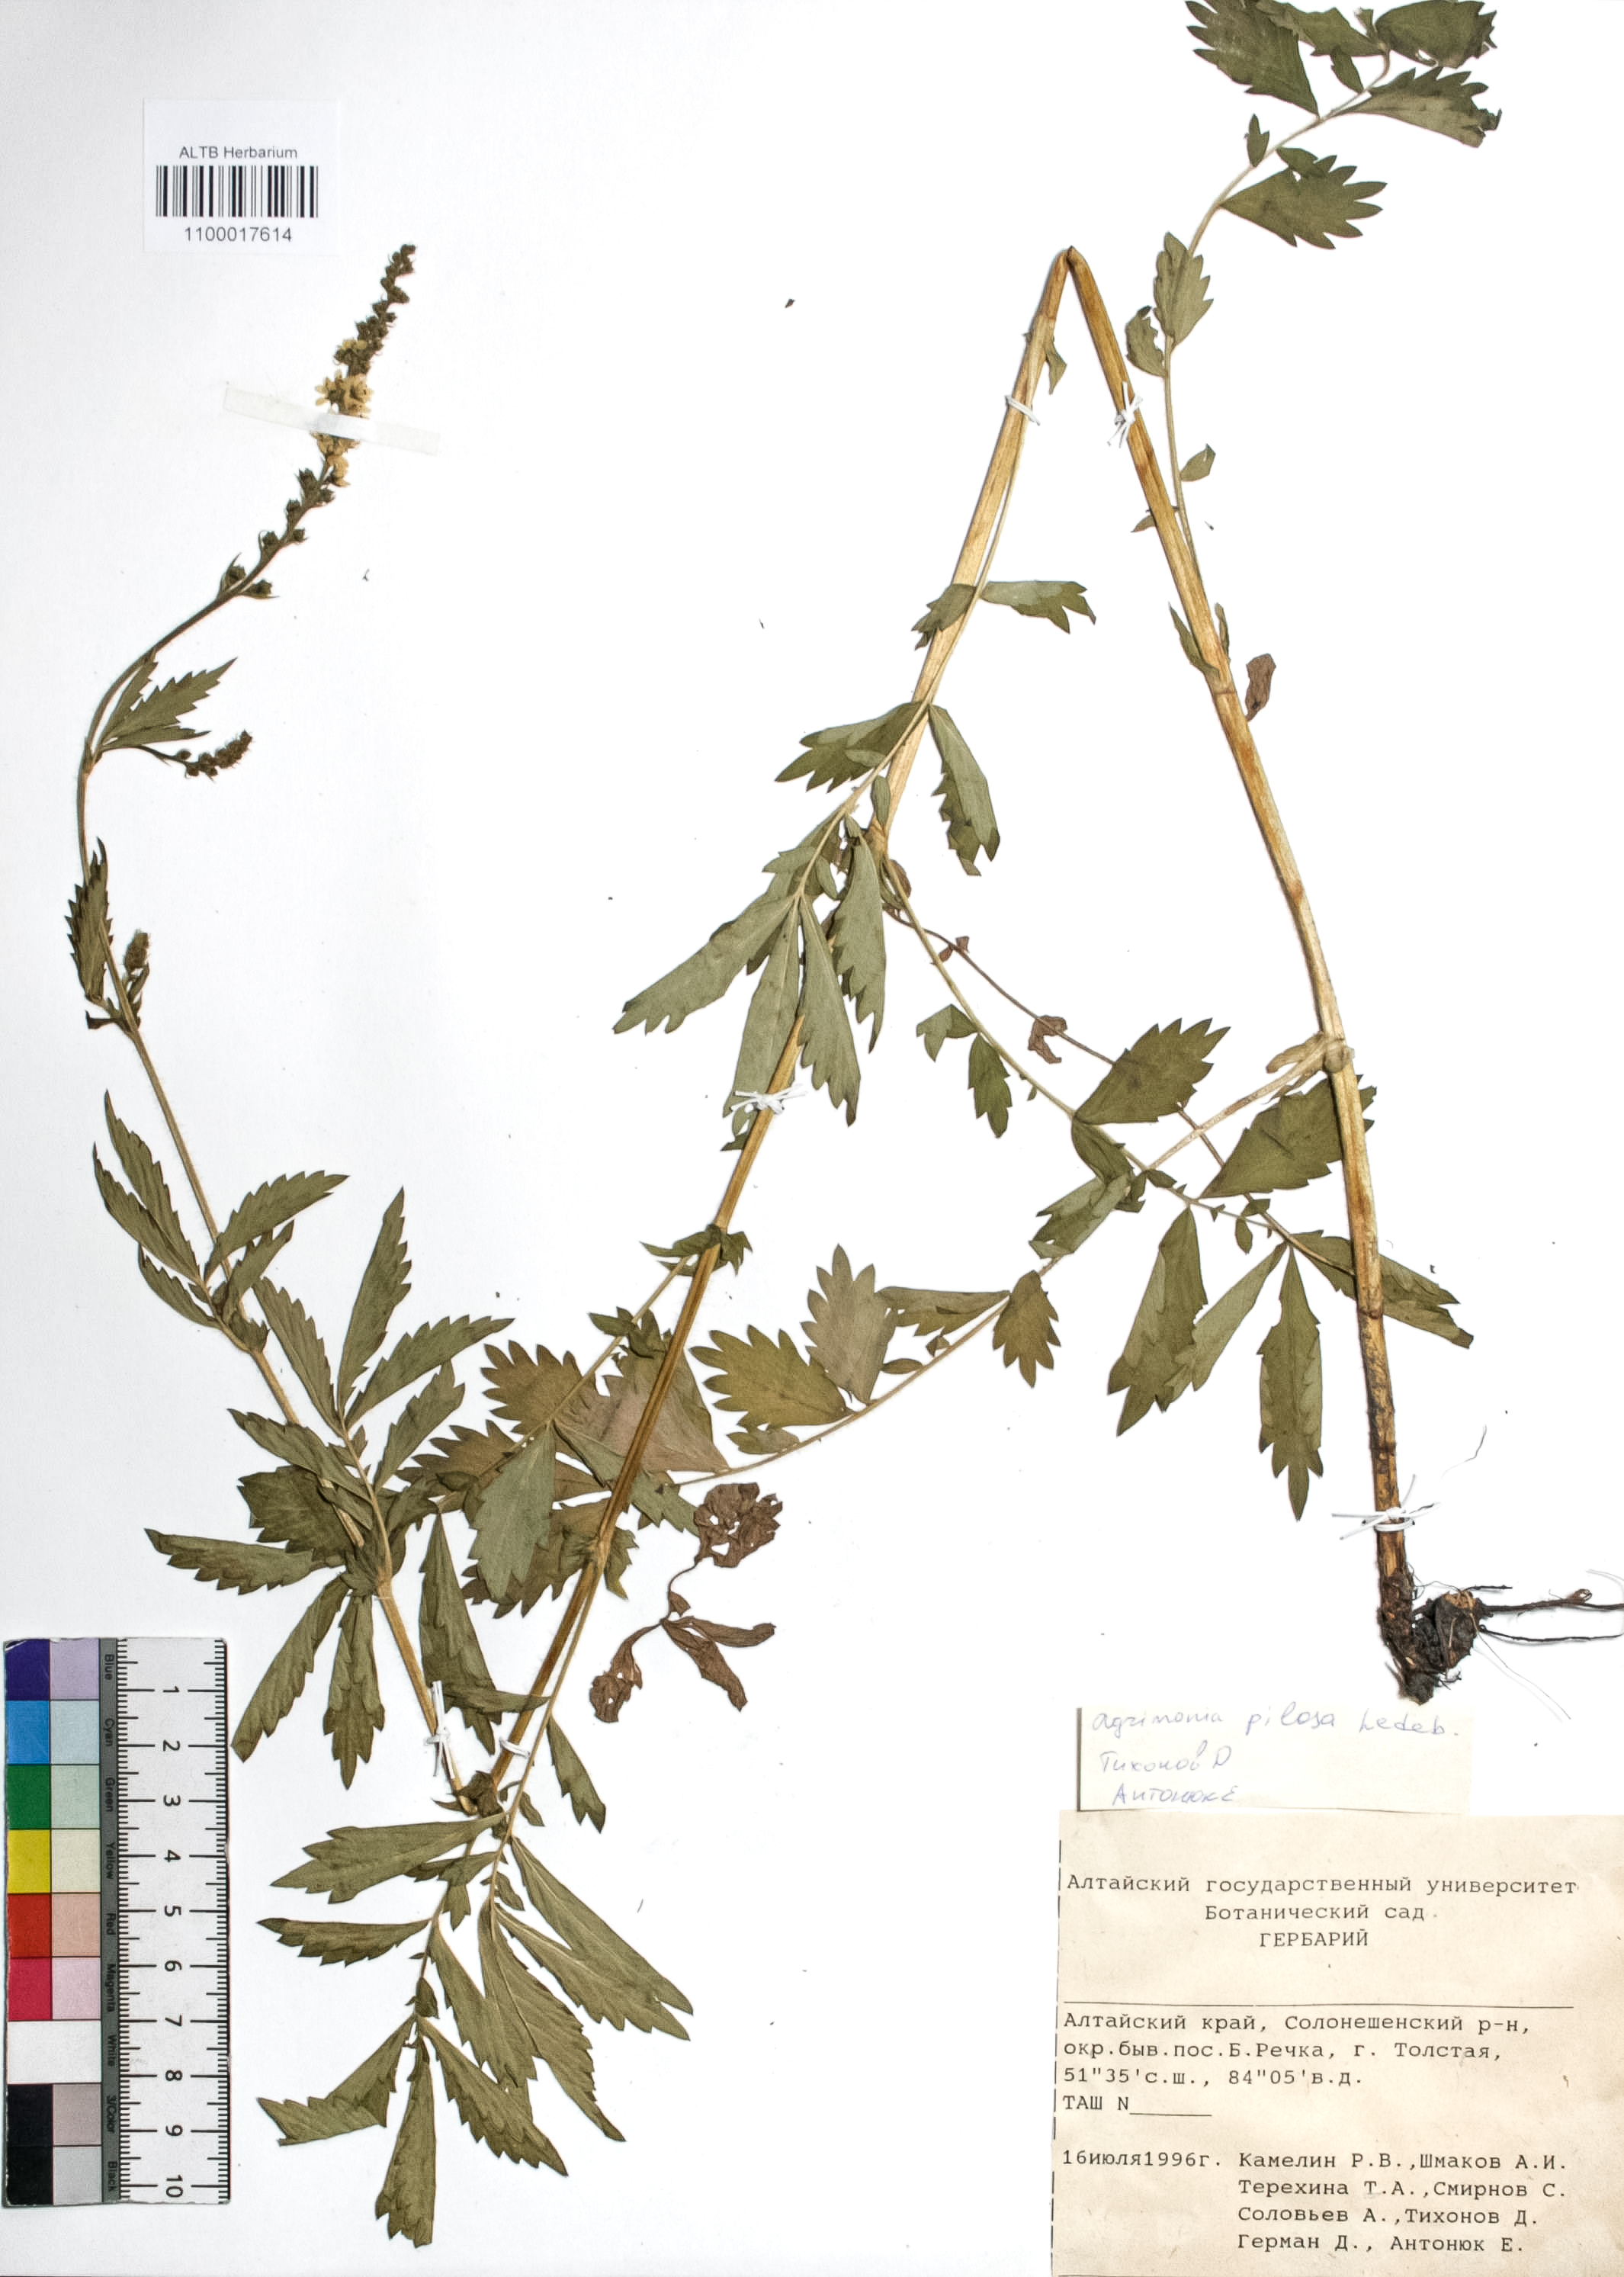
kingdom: Plantae
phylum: Tracheophyta
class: Magnoliopsida
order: Rosales
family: Rosaceae
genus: Agrimonia
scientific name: Agrimonia pilosa
